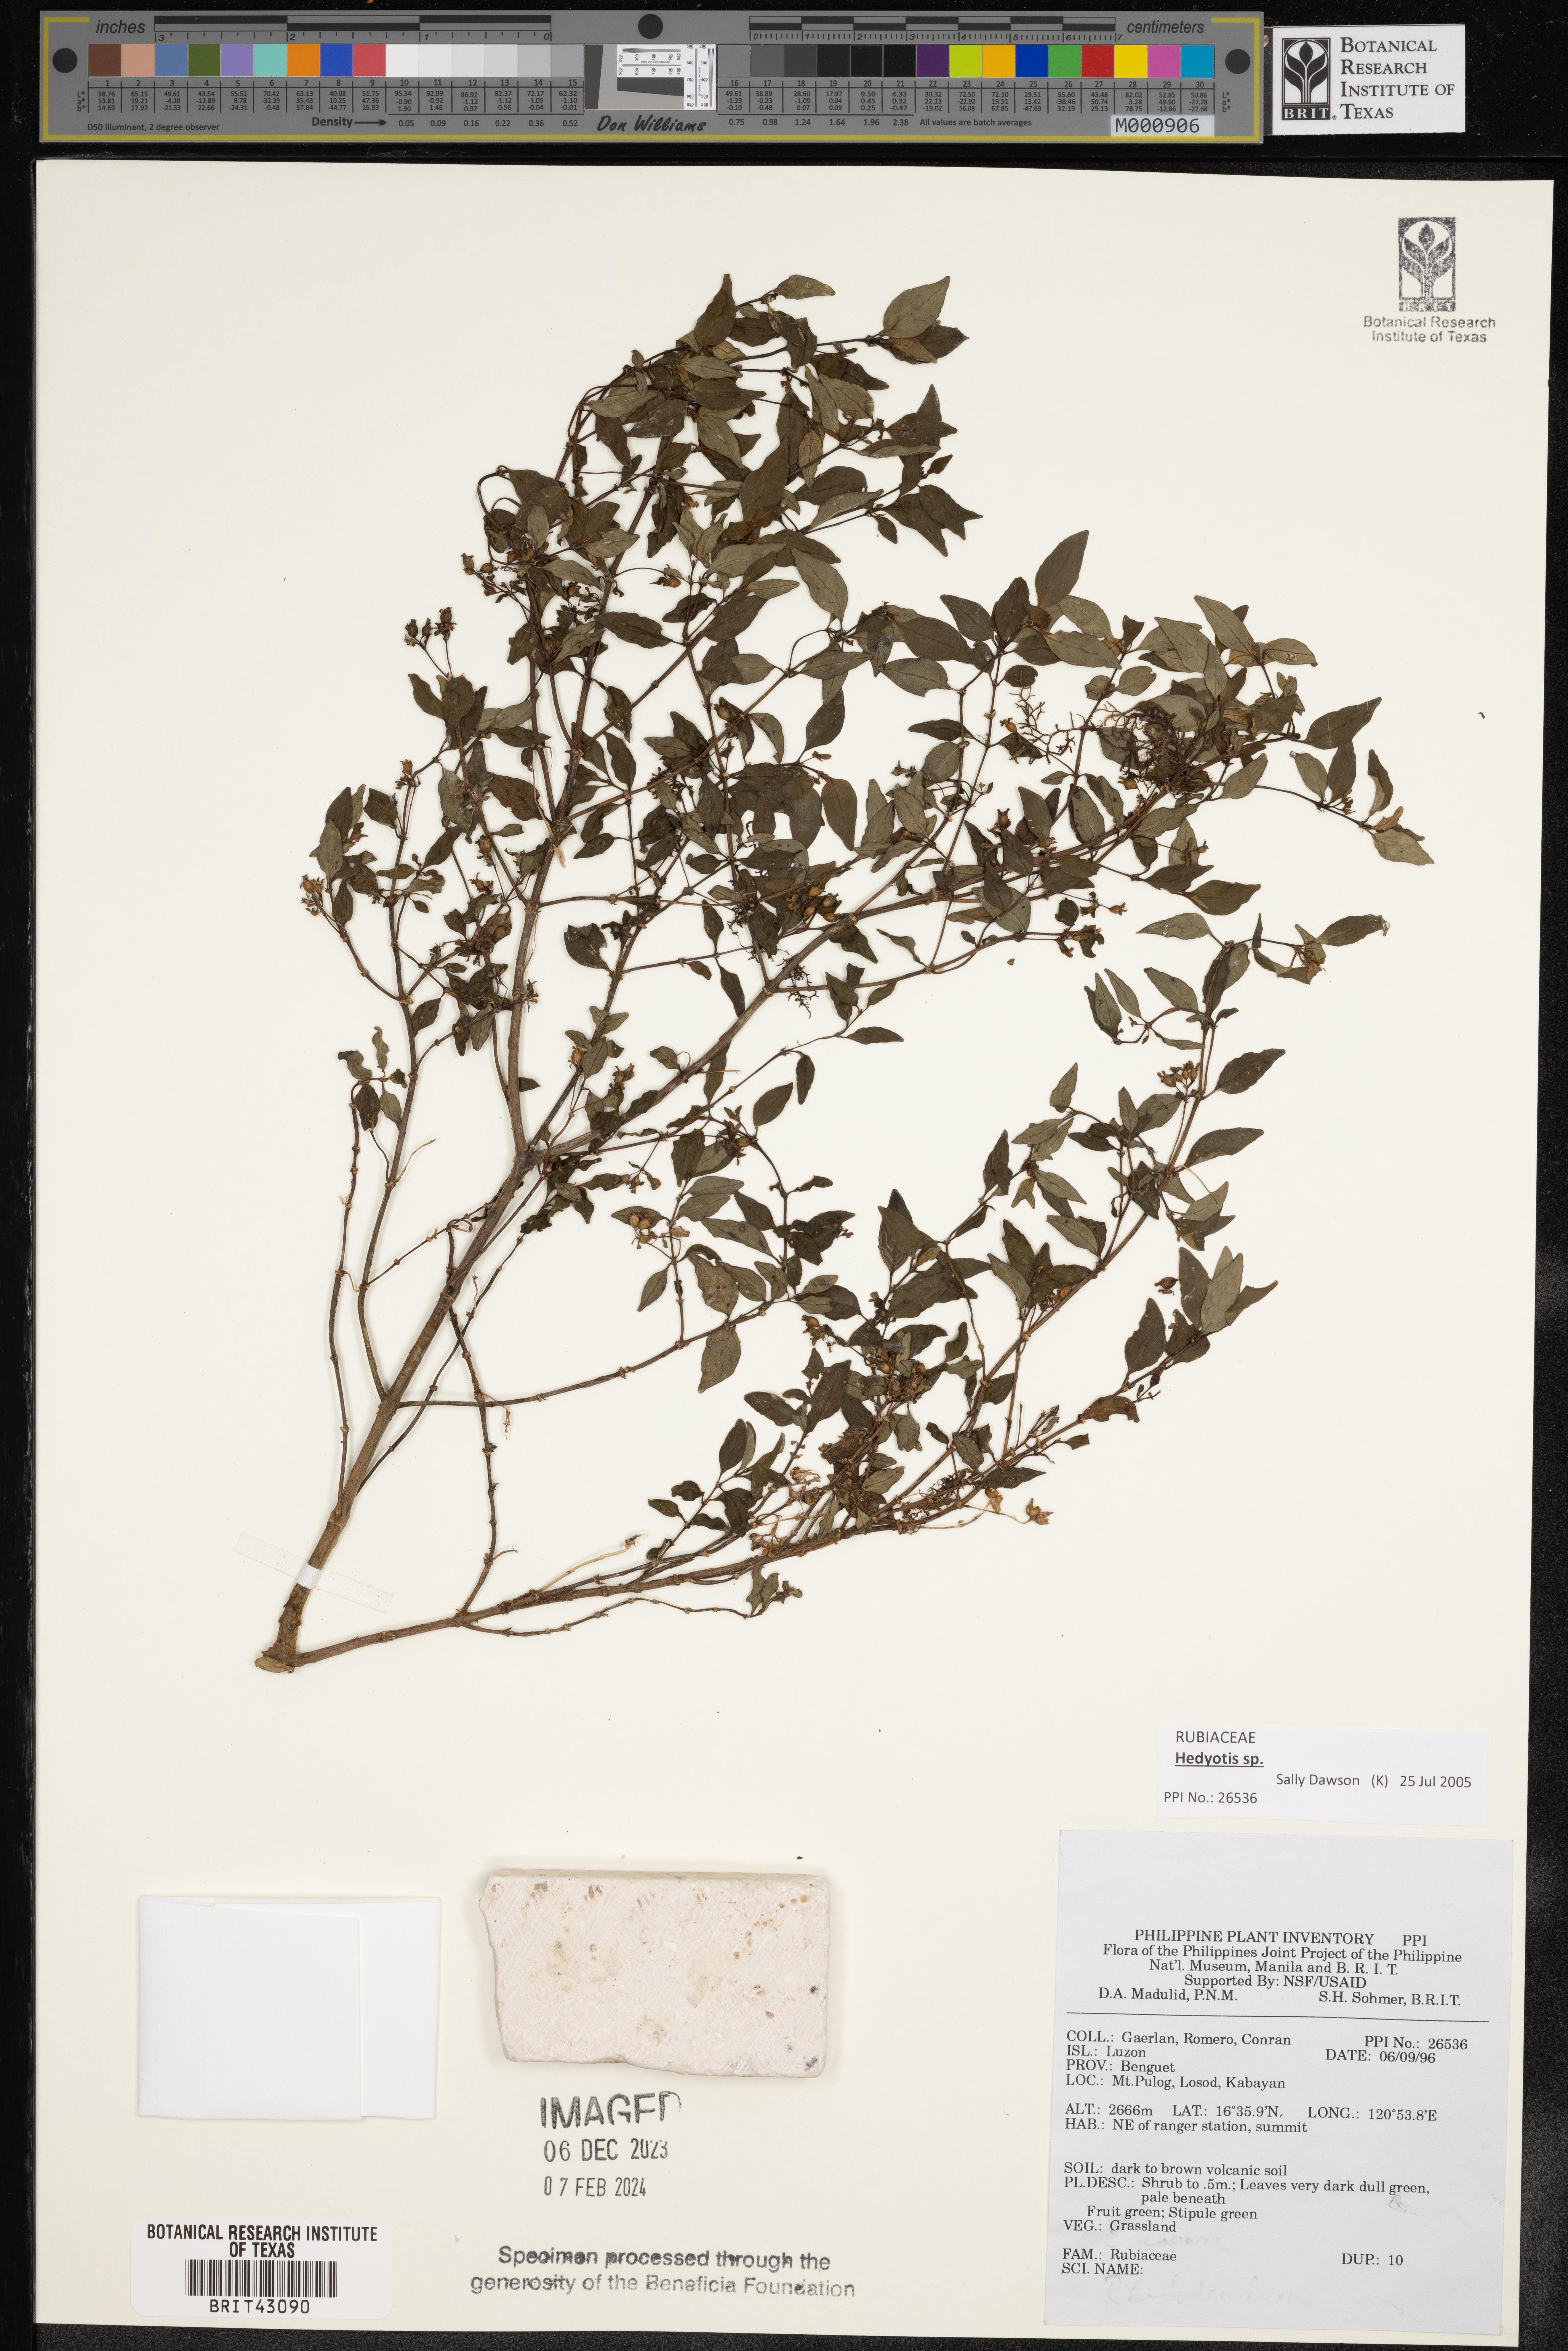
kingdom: Plantae
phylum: Tracheophyta
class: Magnoliopsida
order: Gentianales
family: Rubiaceae
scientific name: Rubiaceae
